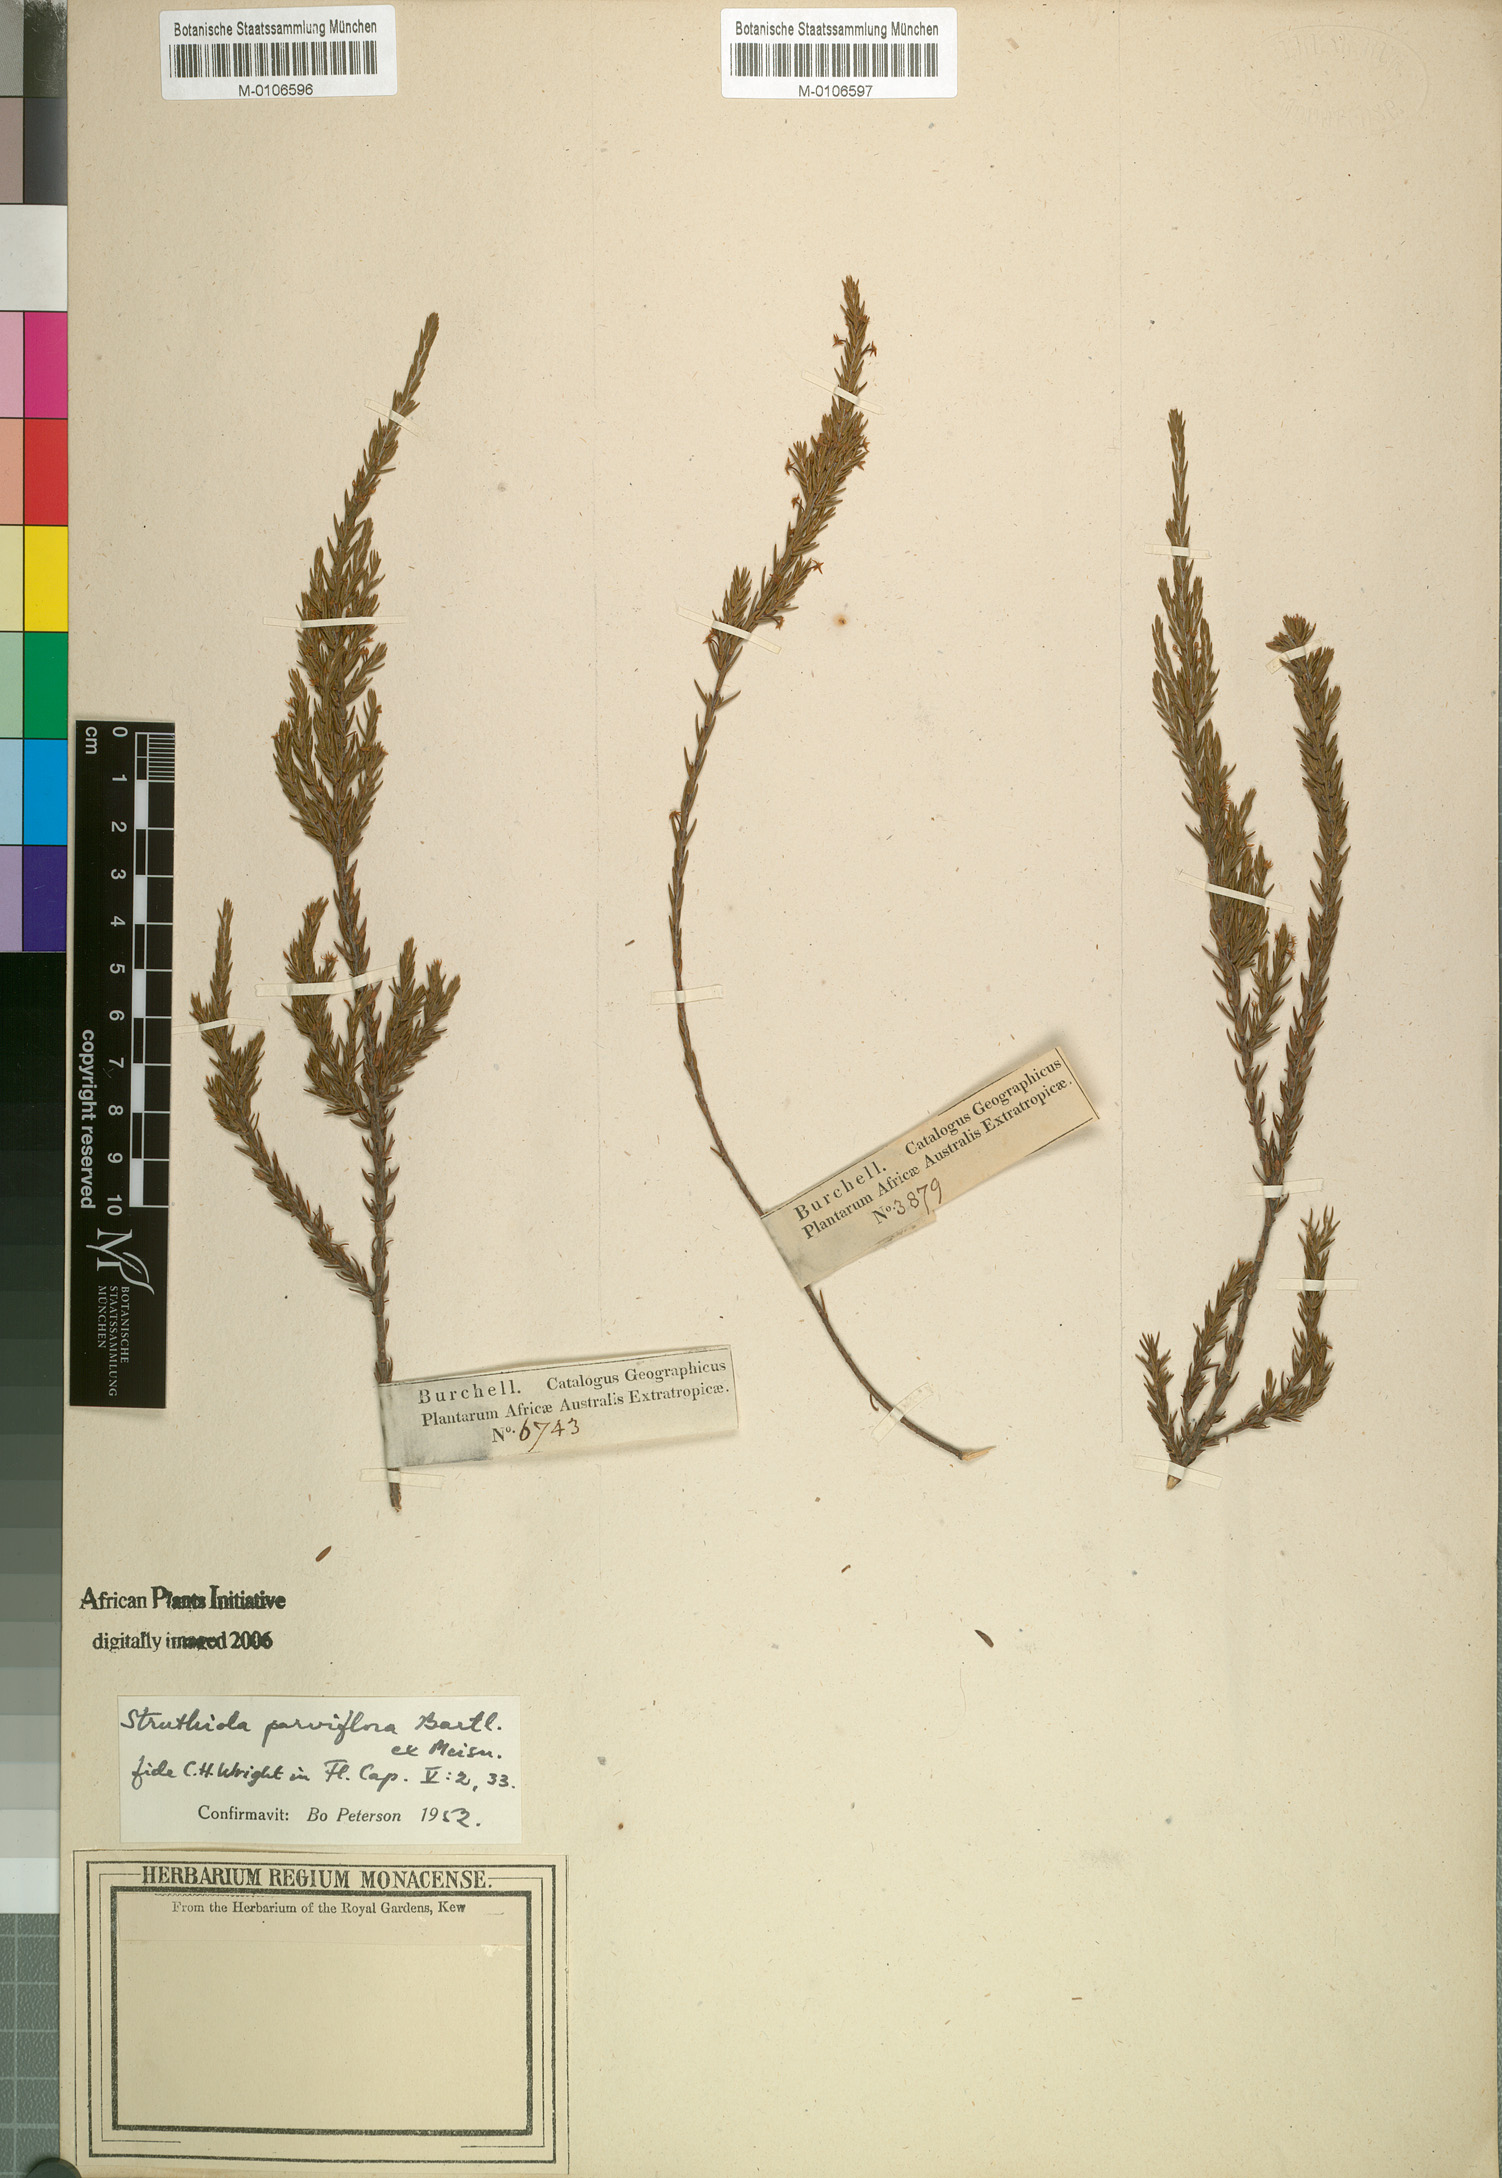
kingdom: Plantae
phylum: Tracheophyta
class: Magnoliopsida
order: Malvales
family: Thymelaeaceae
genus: Struthiola
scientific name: Struthiola parviflora
